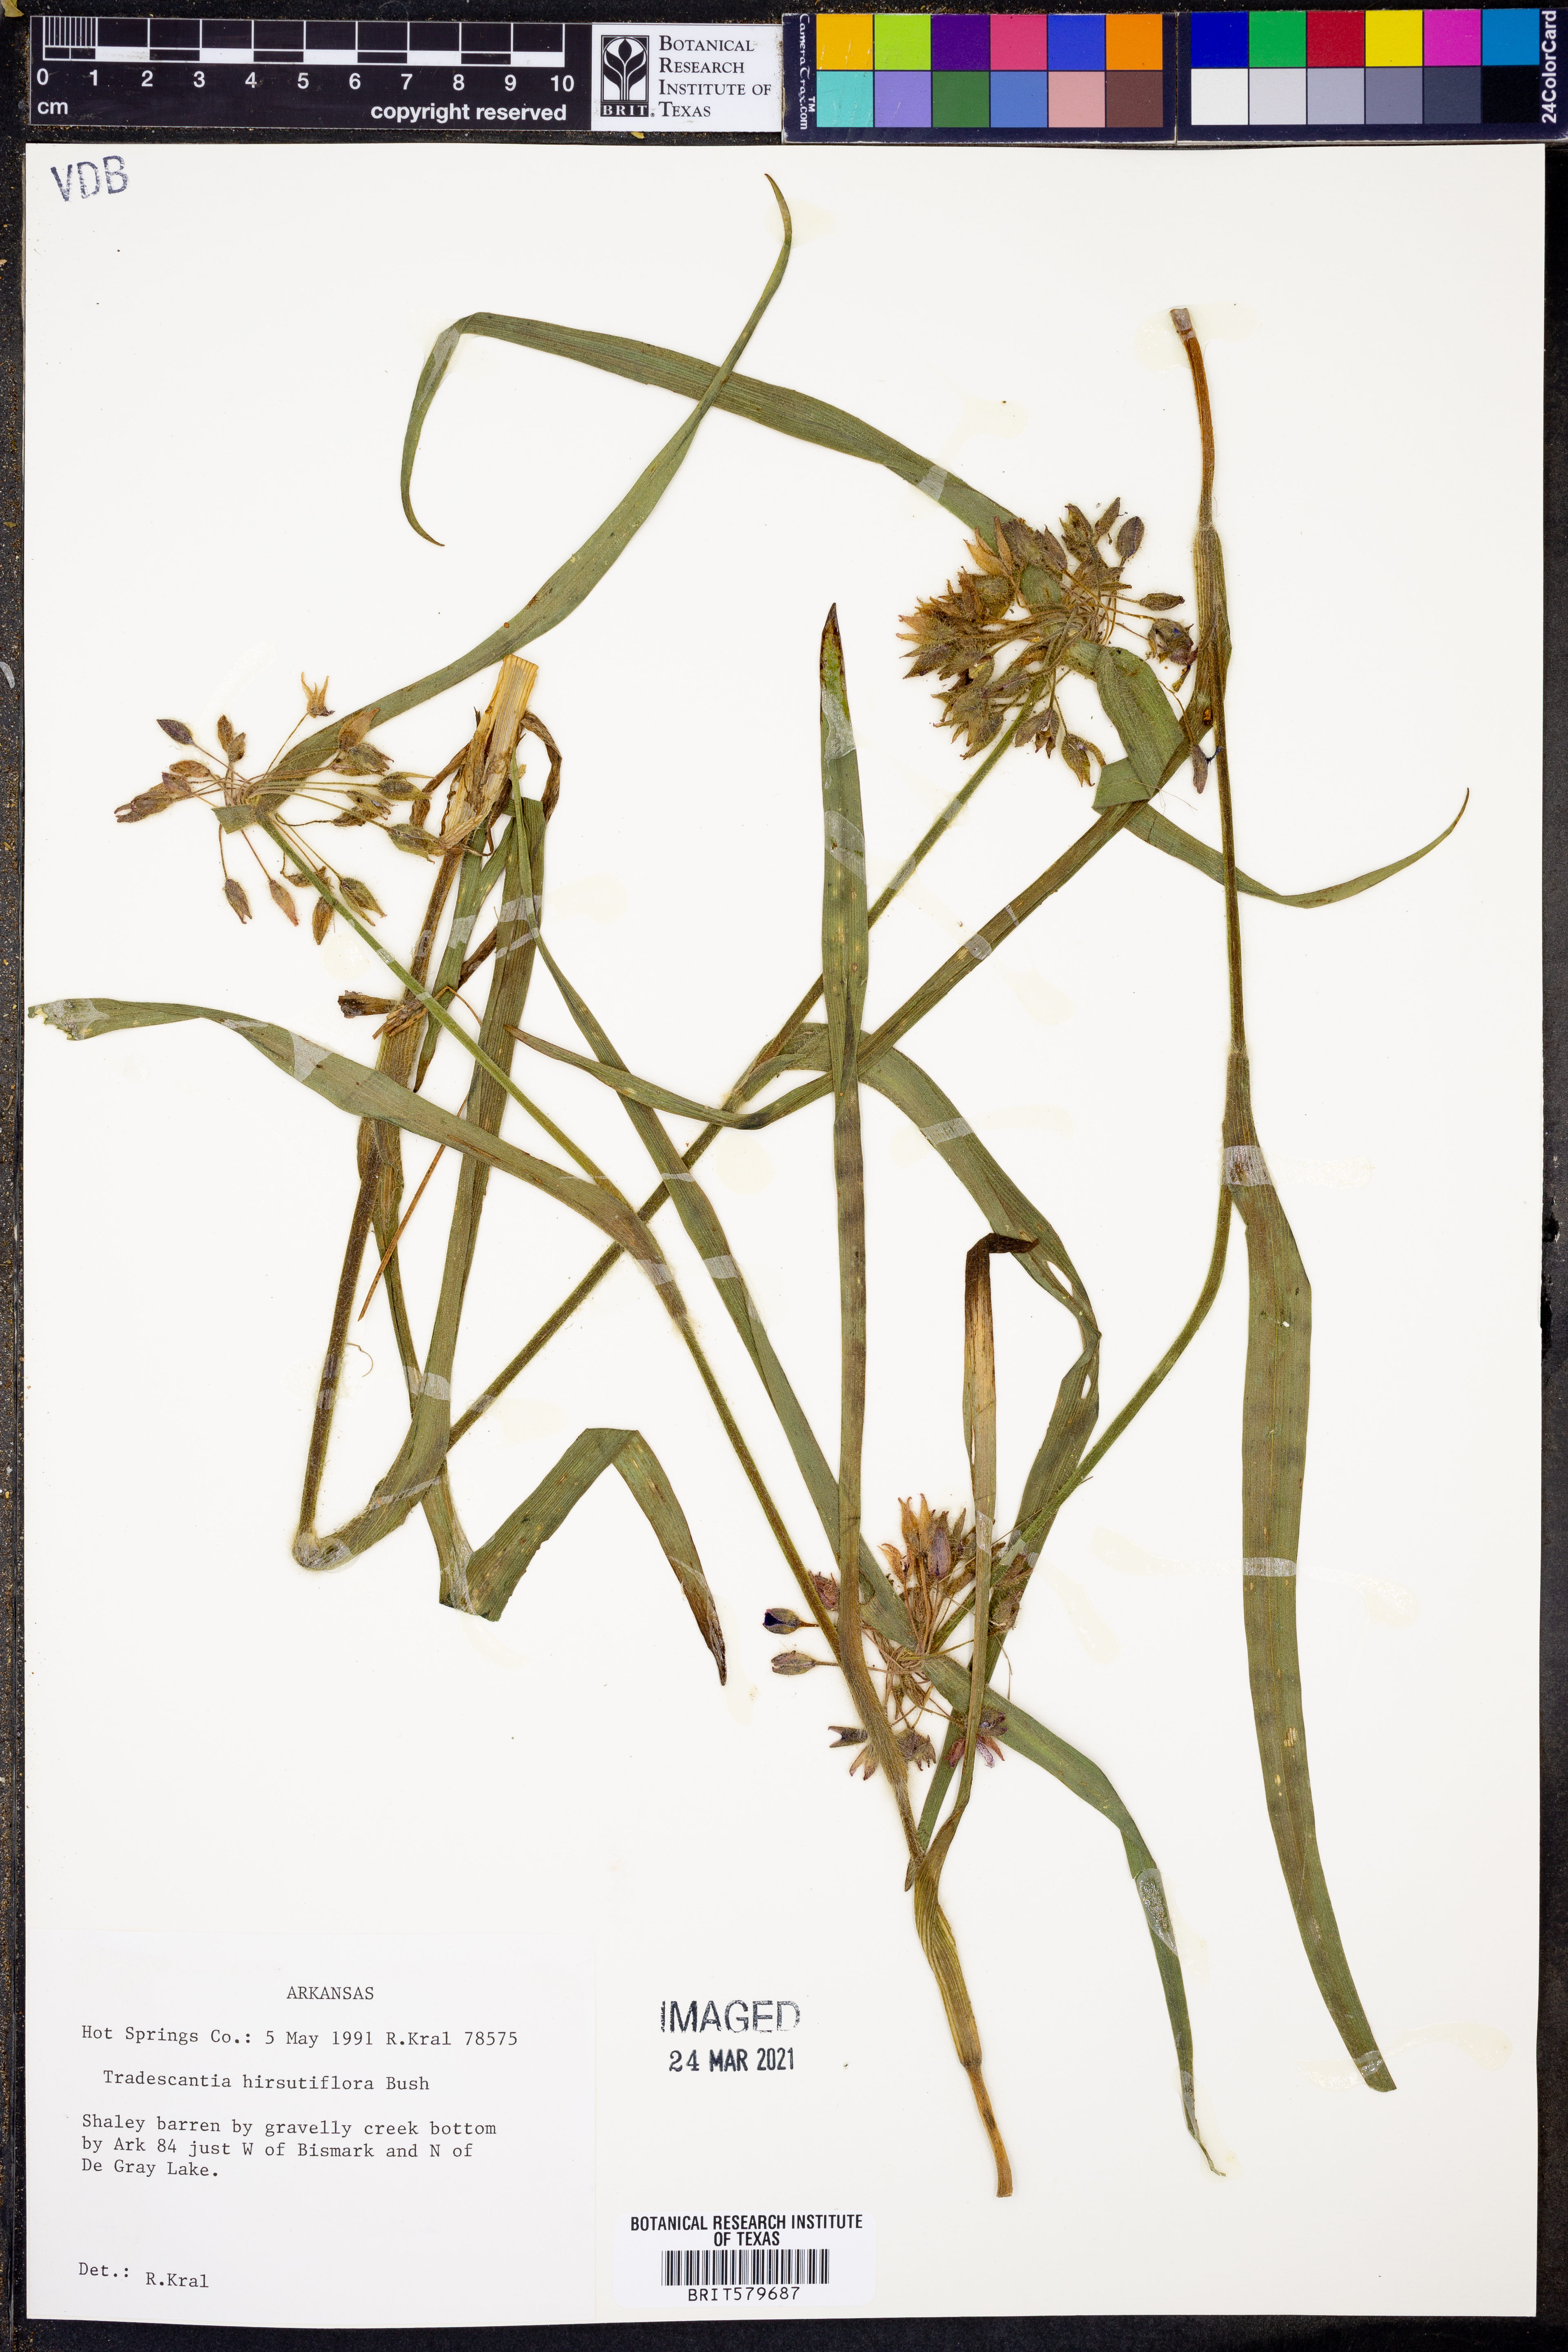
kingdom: Plantae
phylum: Tracheophyta
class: Liliopsida
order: Commelinales
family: Commelinaceae
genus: Tradescantia
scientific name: Tradescantia hirsutiflora
